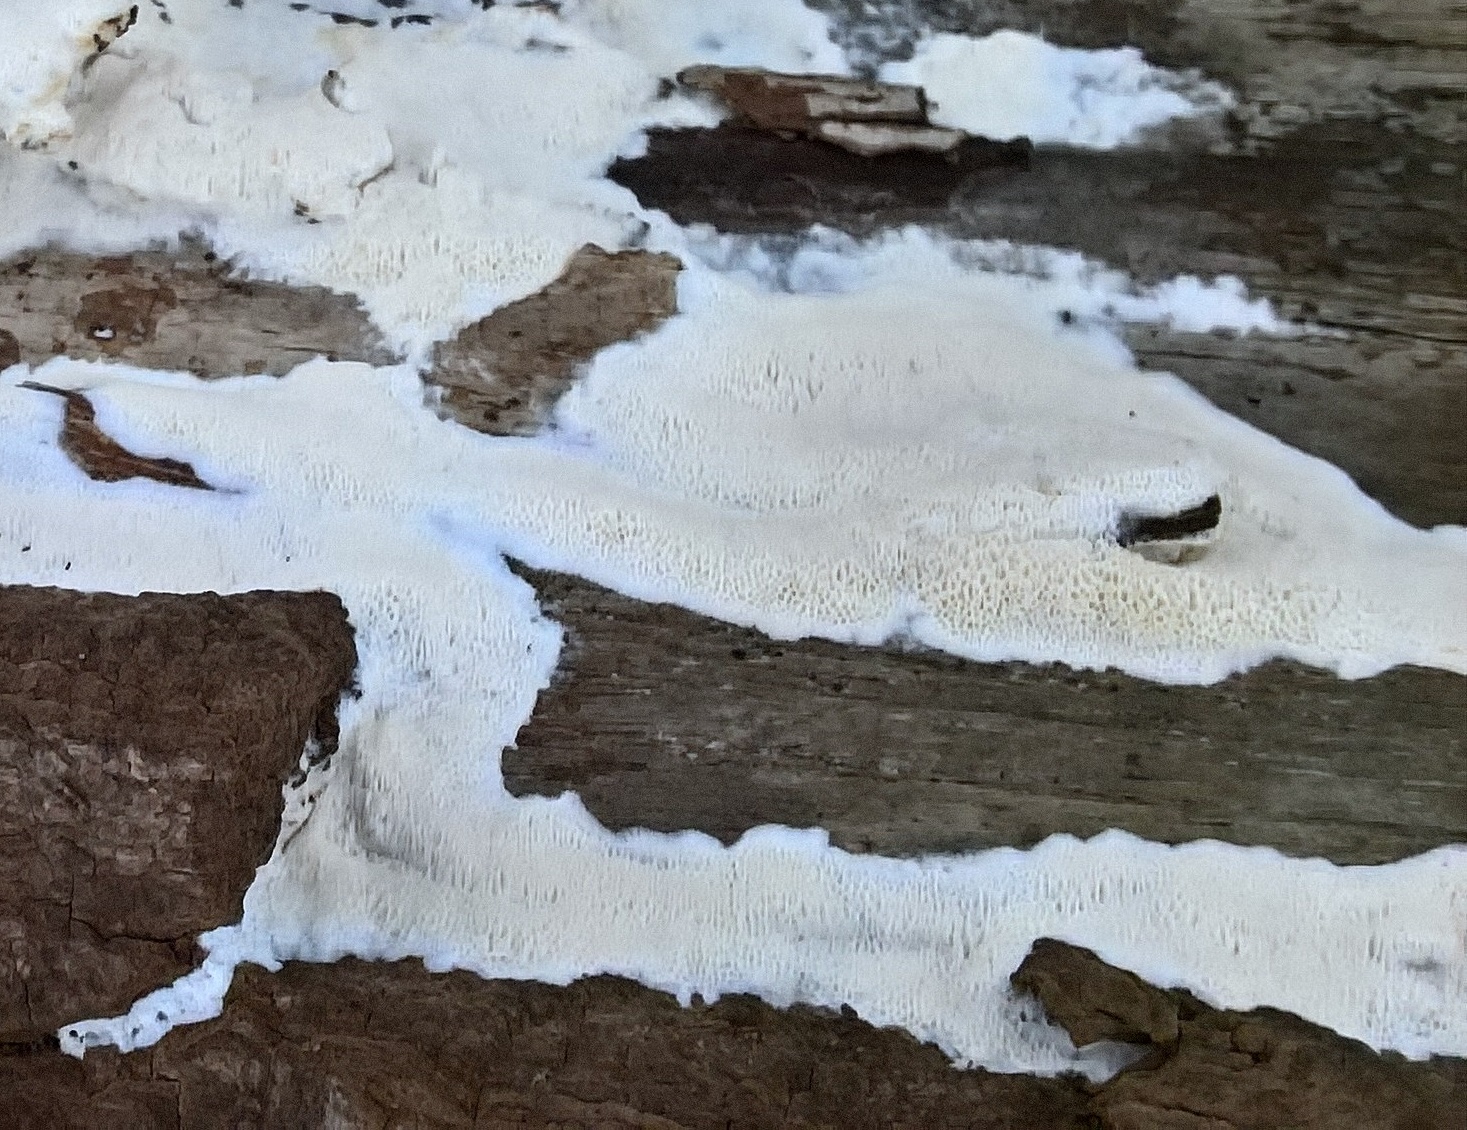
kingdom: Fungi
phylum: Basidiomycota
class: Agaricomycetes
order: Polyporales
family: Meripilaceae
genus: Rigidoporus
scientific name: Rigidoporus
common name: trylleporesvamp
